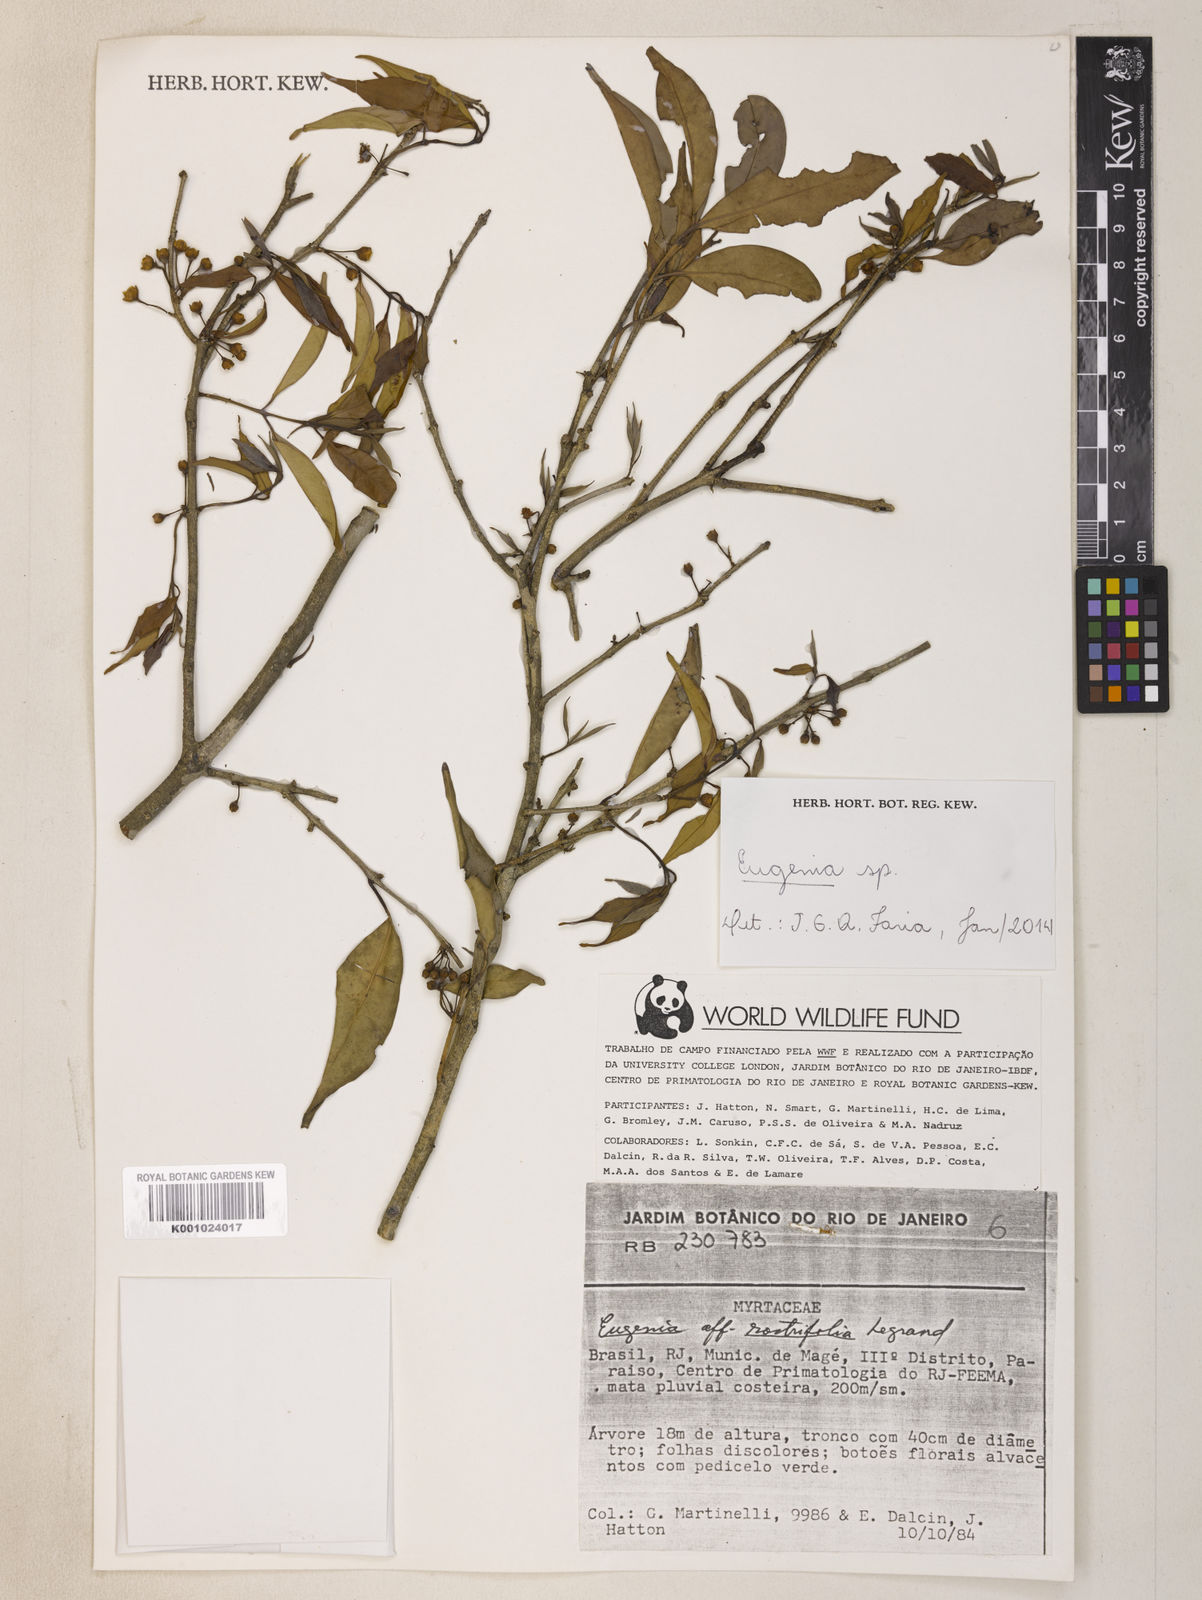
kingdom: Plantae
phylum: Tracheophyta
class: Magnoliopsida
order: Myrtales
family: Myrtaceae
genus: Eugenia
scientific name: Eugenia brevistyla
